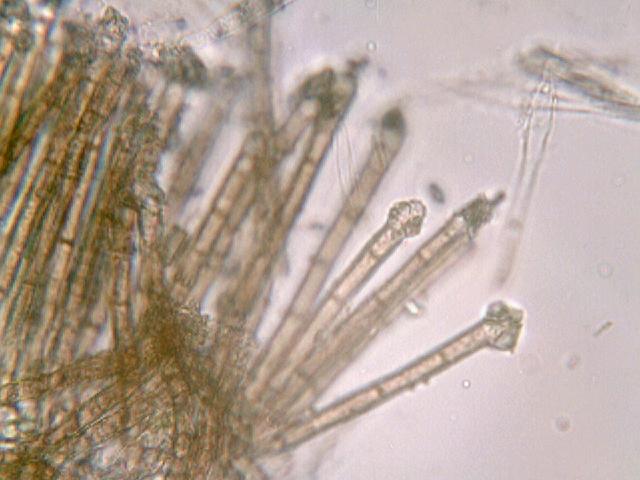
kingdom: Fungi
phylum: Ascomycota
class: Leotiomycetes
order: Helotiales
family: Lachnaceae
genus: Brunnipila
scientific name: Brunnipila fuscescens
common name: bøge-frynseskive
